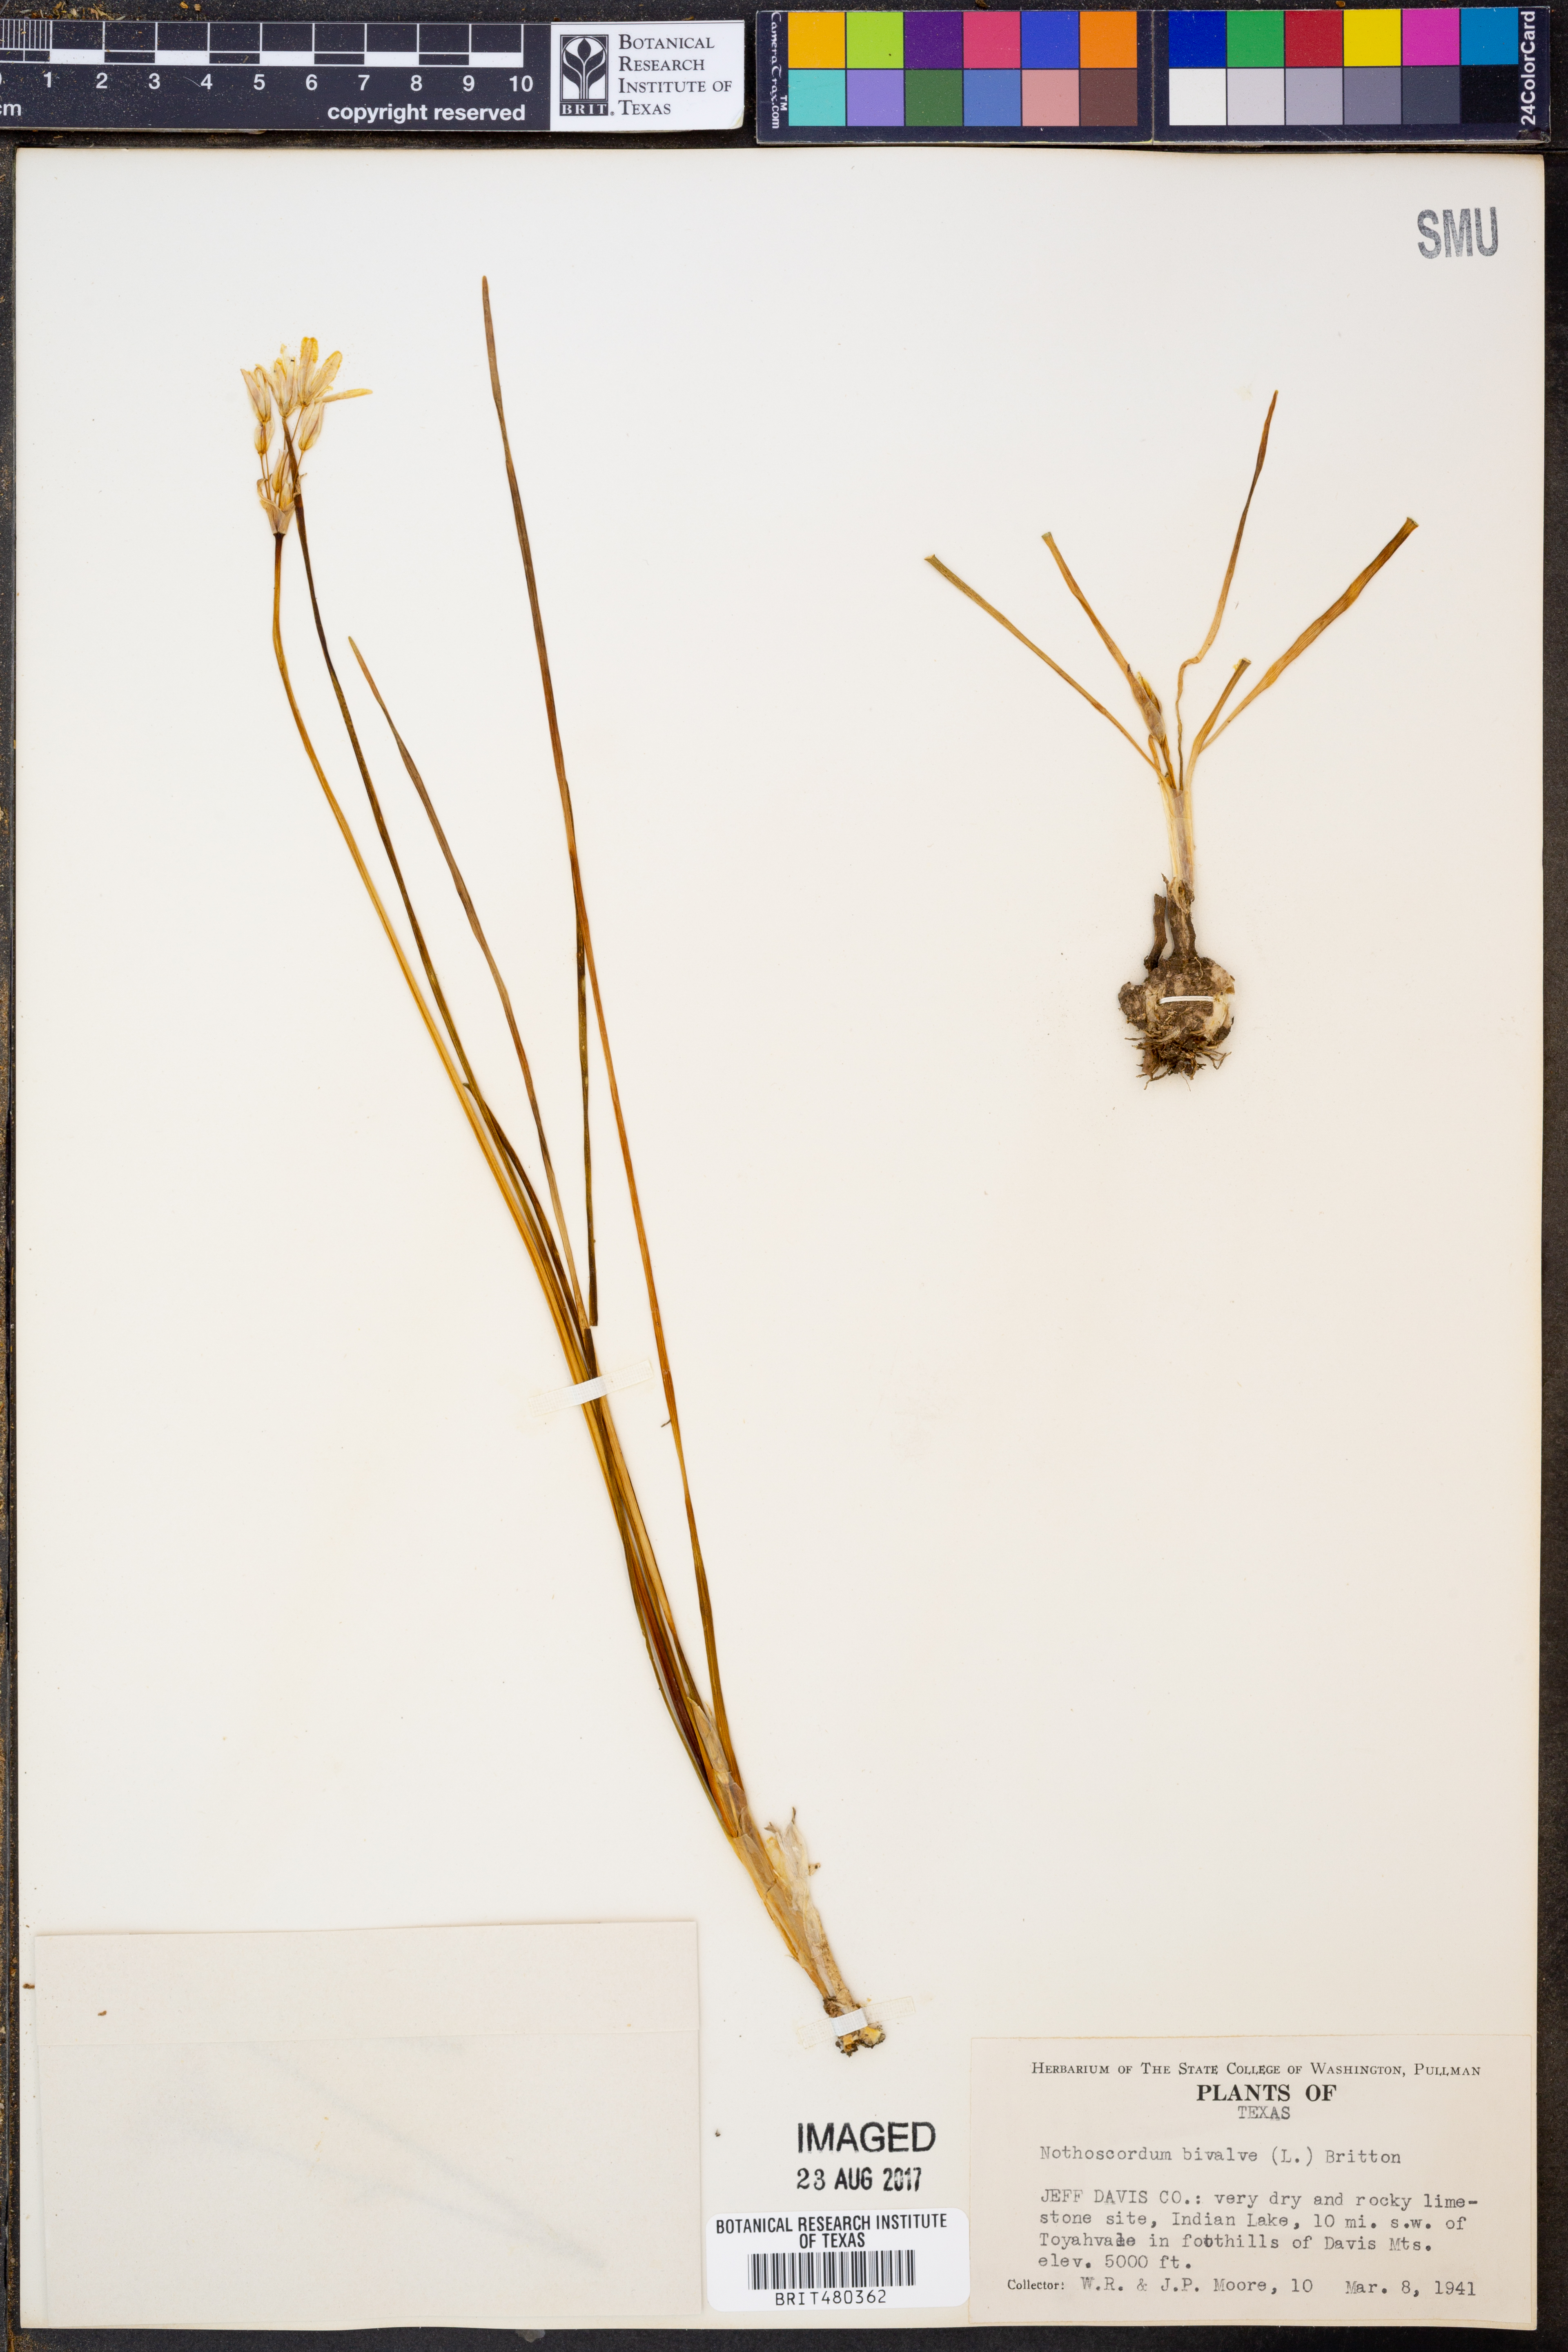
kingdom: Plantae
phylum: Tracheophyta
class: Liliopsida
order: Asparagales
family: Amaryllidaceae
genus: Nothoscordum
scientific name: Nothoscordum bivalve
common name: Crow-poison
